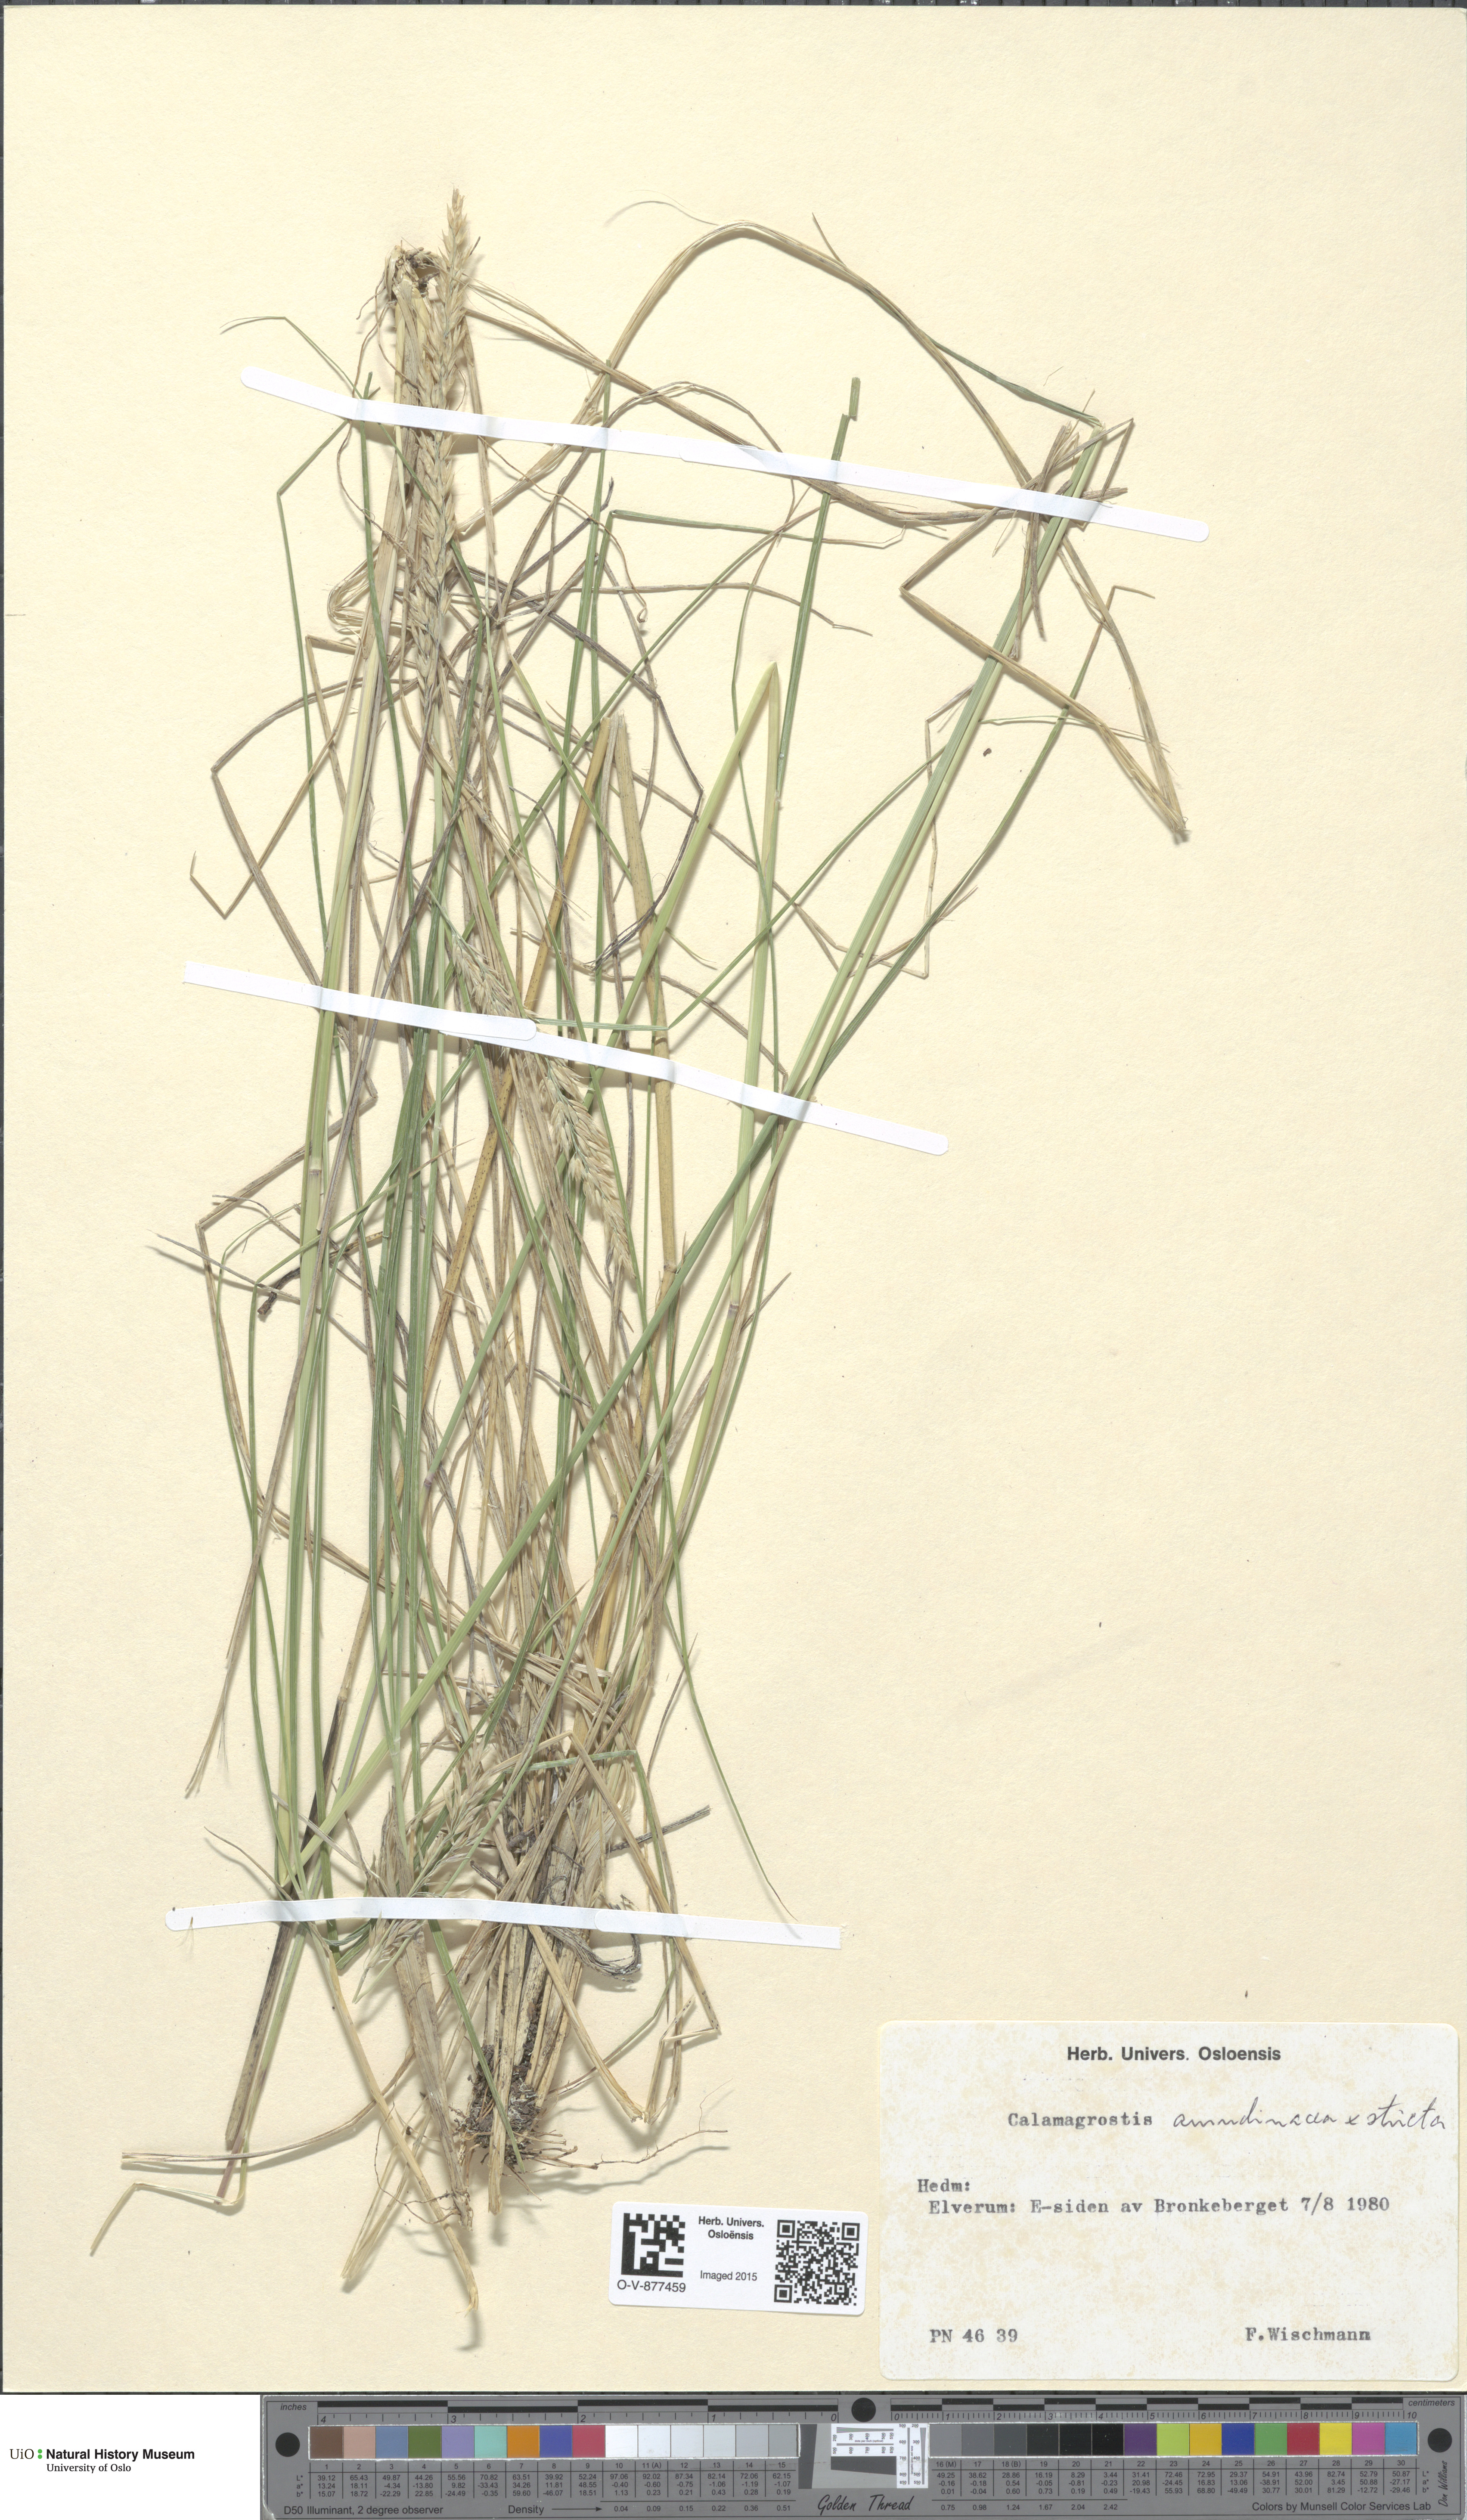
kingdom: Plantae
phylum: Tracheophyta
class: Liliopsida
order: Poales
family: Poaceae
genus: Calamagrostis
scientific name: Calamagrostis
